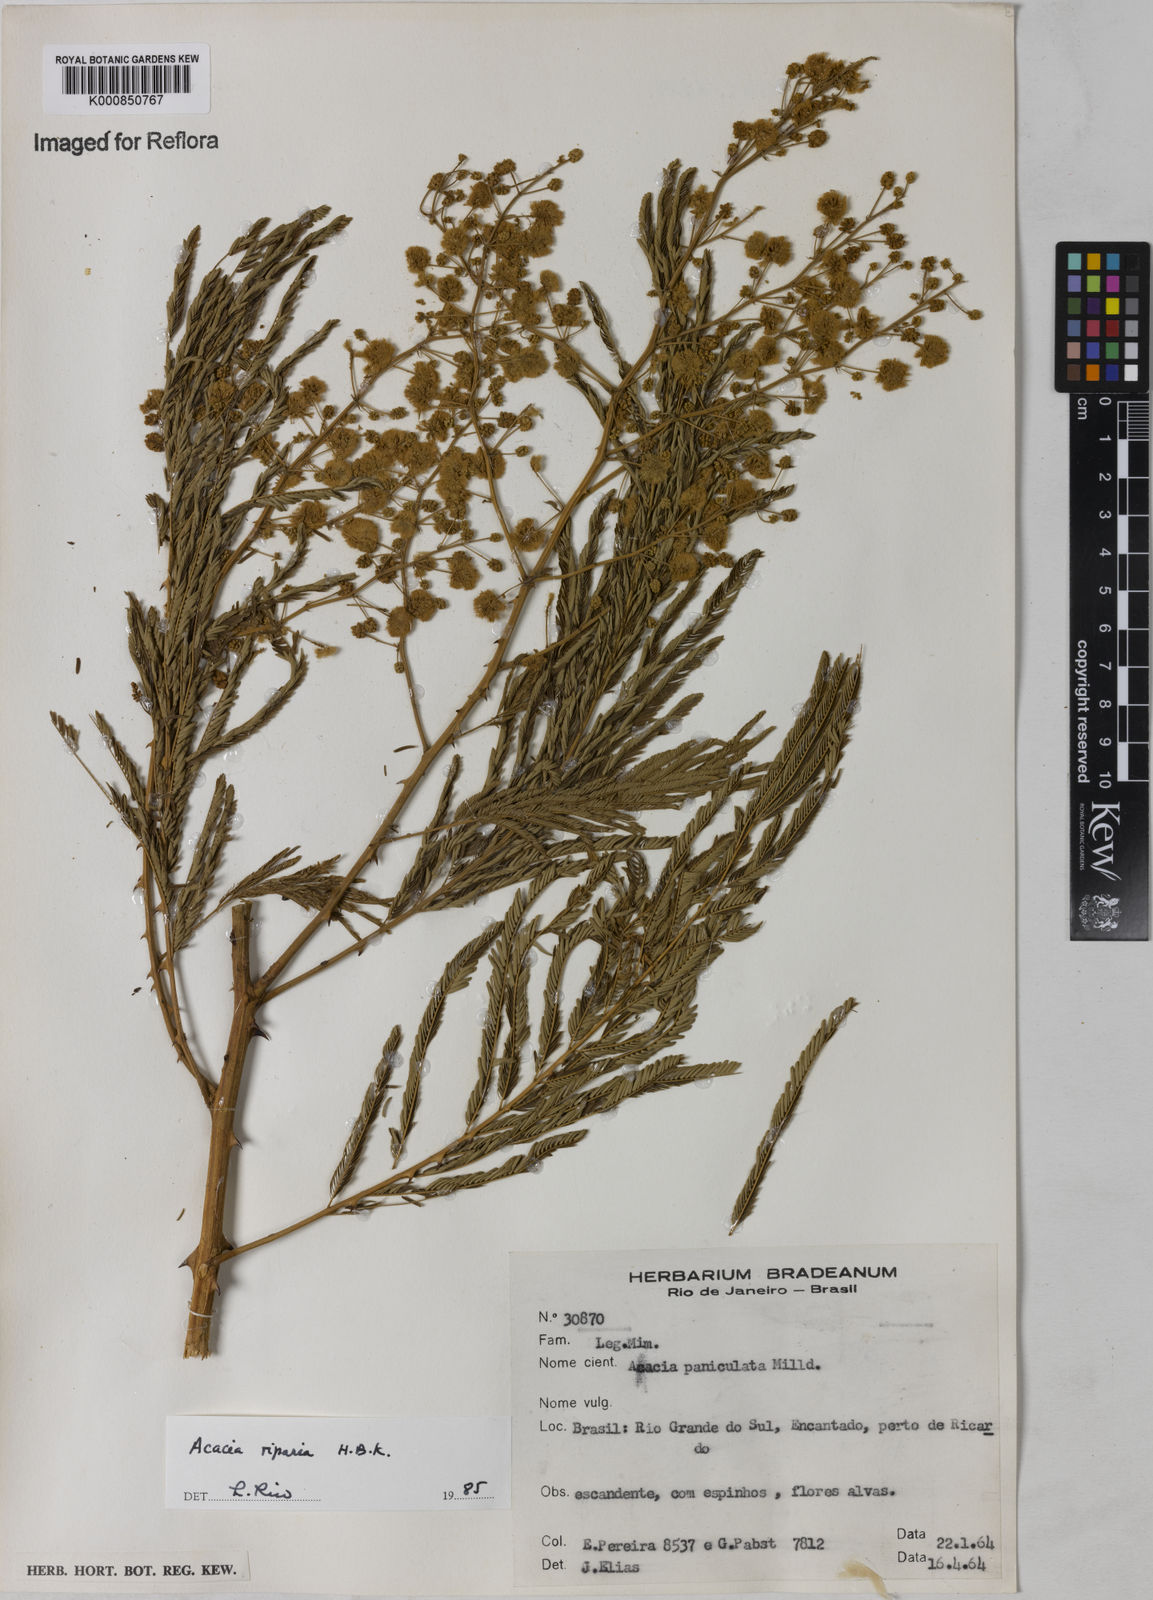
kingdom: Plantae
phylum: Tracheophyta
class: Magnoliopsida
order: Fabales
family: Fabaceae
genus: Senegalia
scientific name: Senegalia riparia
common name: Catch-and-keep
